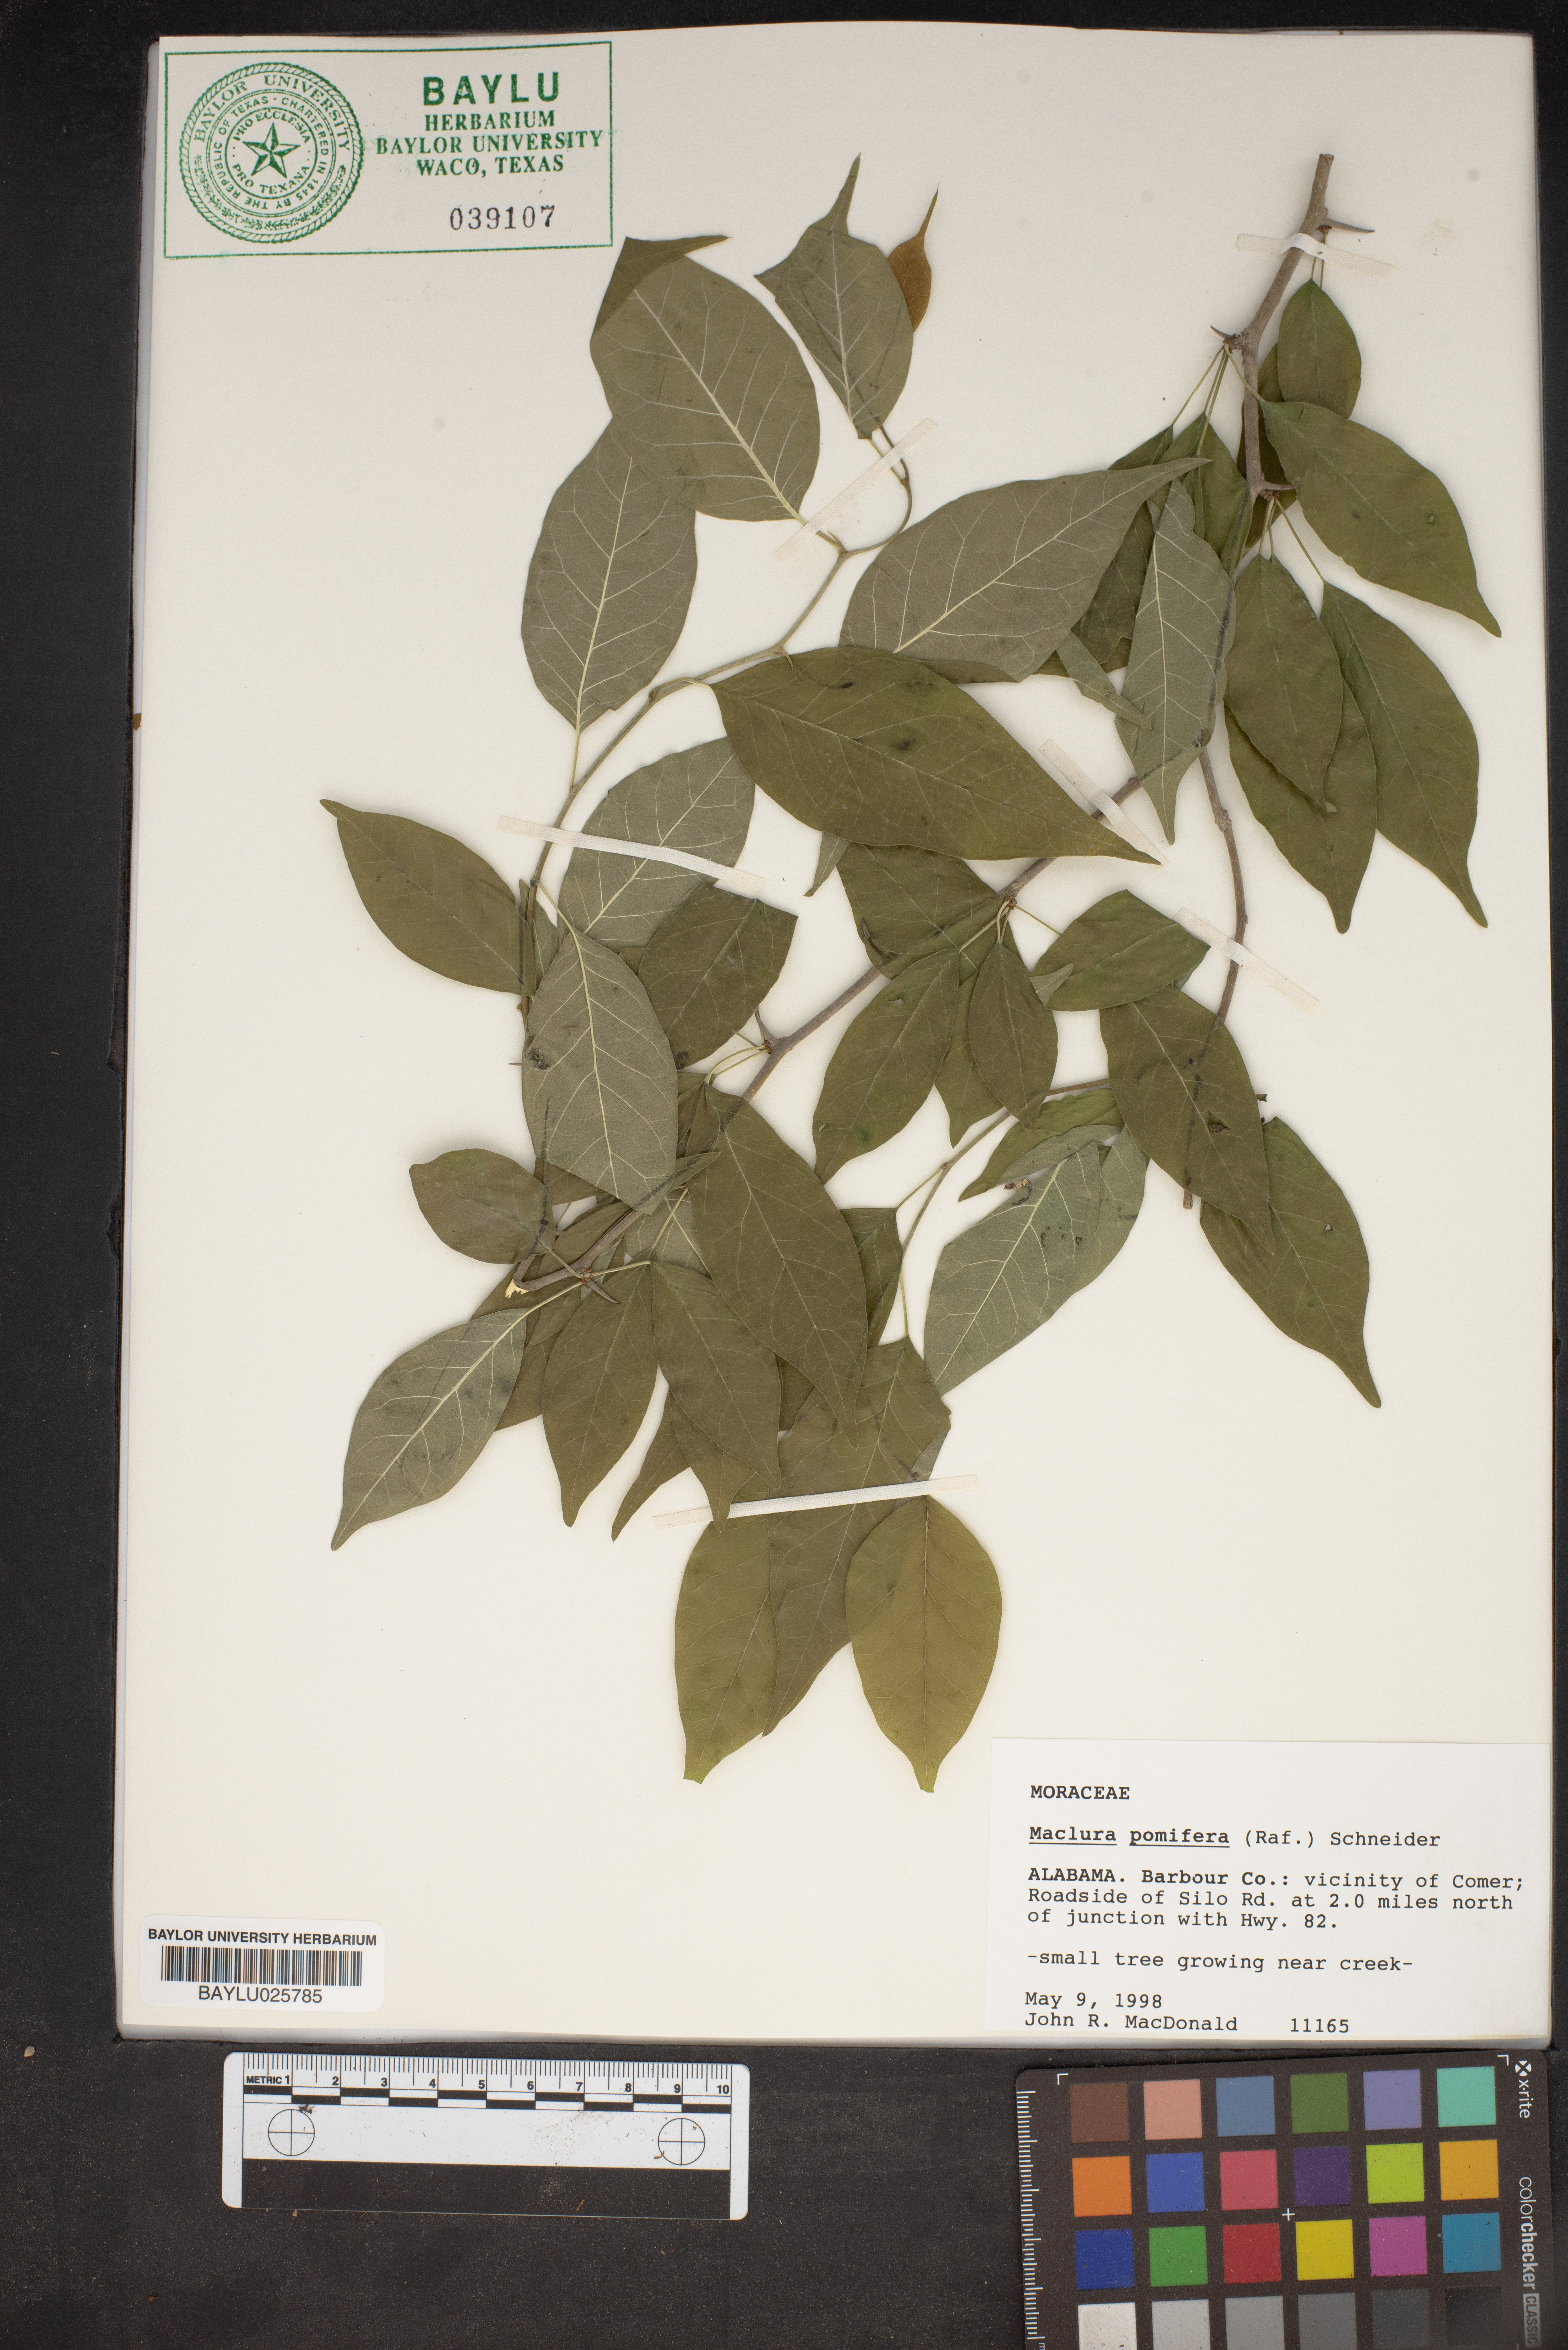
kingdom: Plantae
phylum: Tracheophyta
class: Magnoliopsida
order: Rosales
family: Moraceae
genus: Maclura
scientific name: Maclura pomifera
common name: Osage-orange
